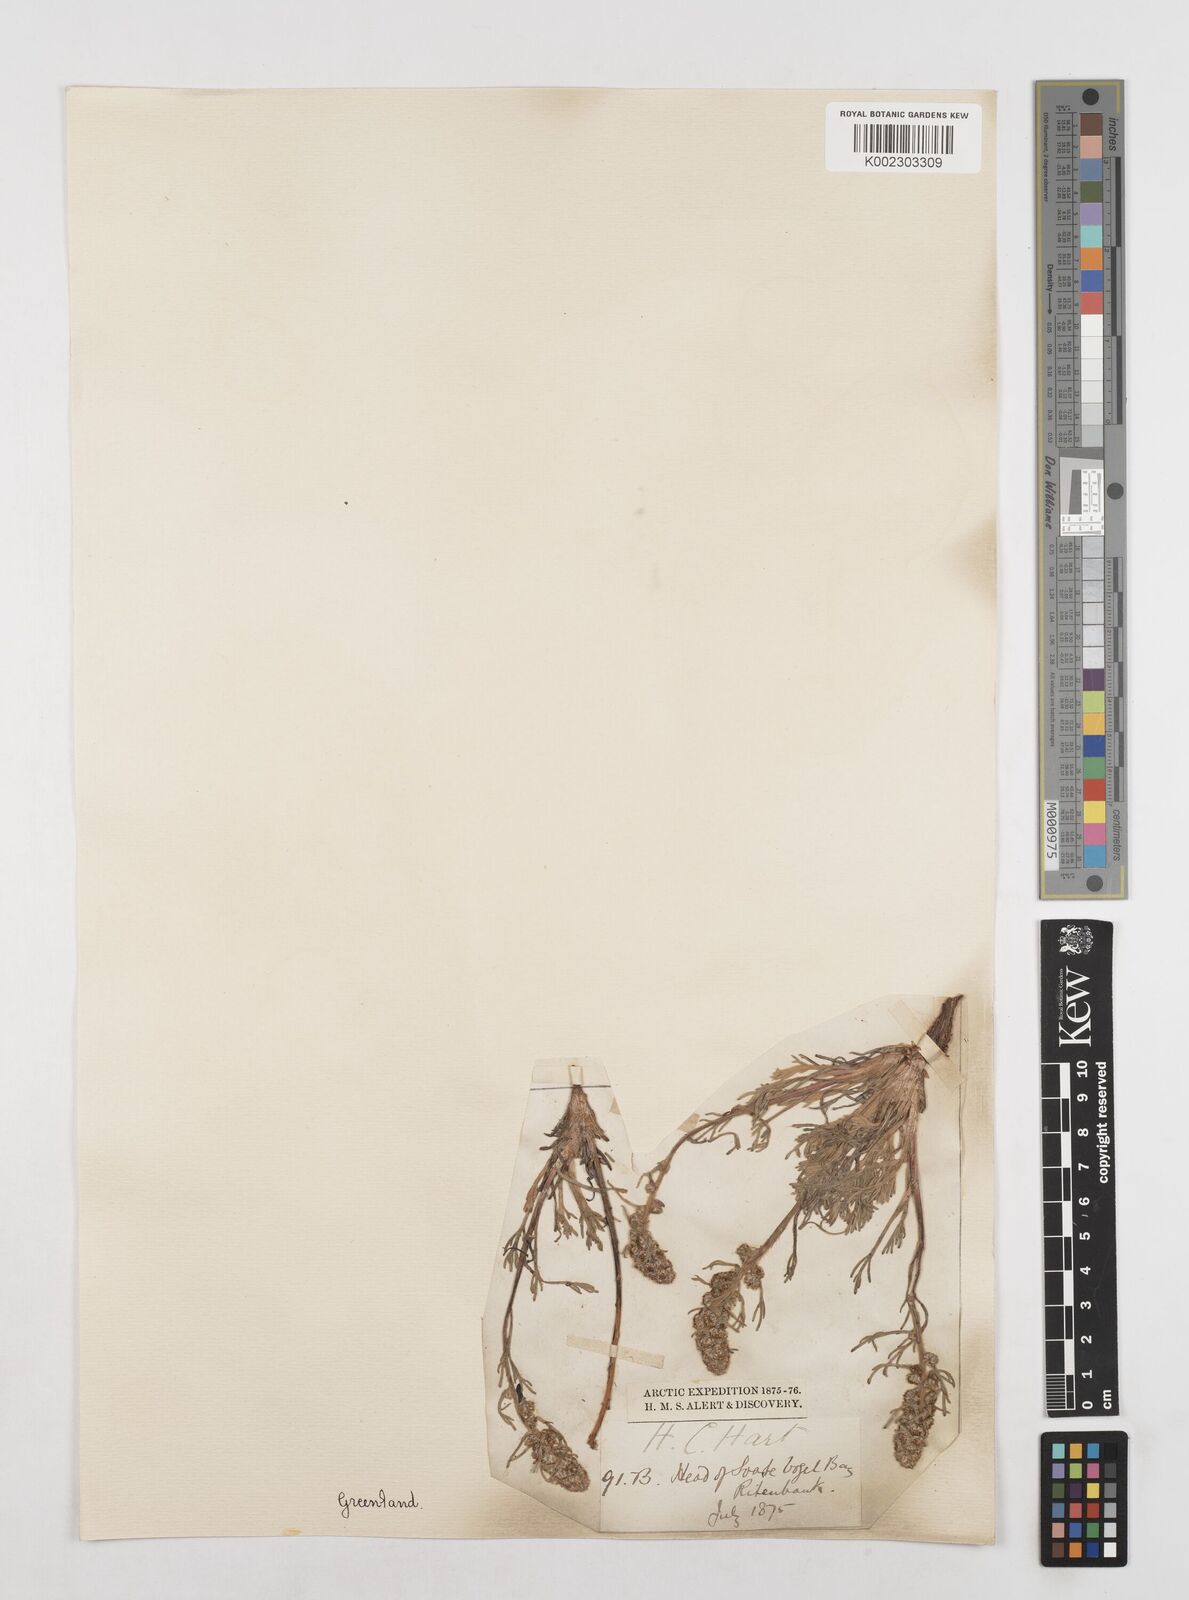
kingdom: Plantae
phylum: Tracheophyta
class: Magnoliopsida
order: Asterales
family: Asteraceae
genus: Artemisia
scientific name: Artemisia borealis
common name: Boreal sage
